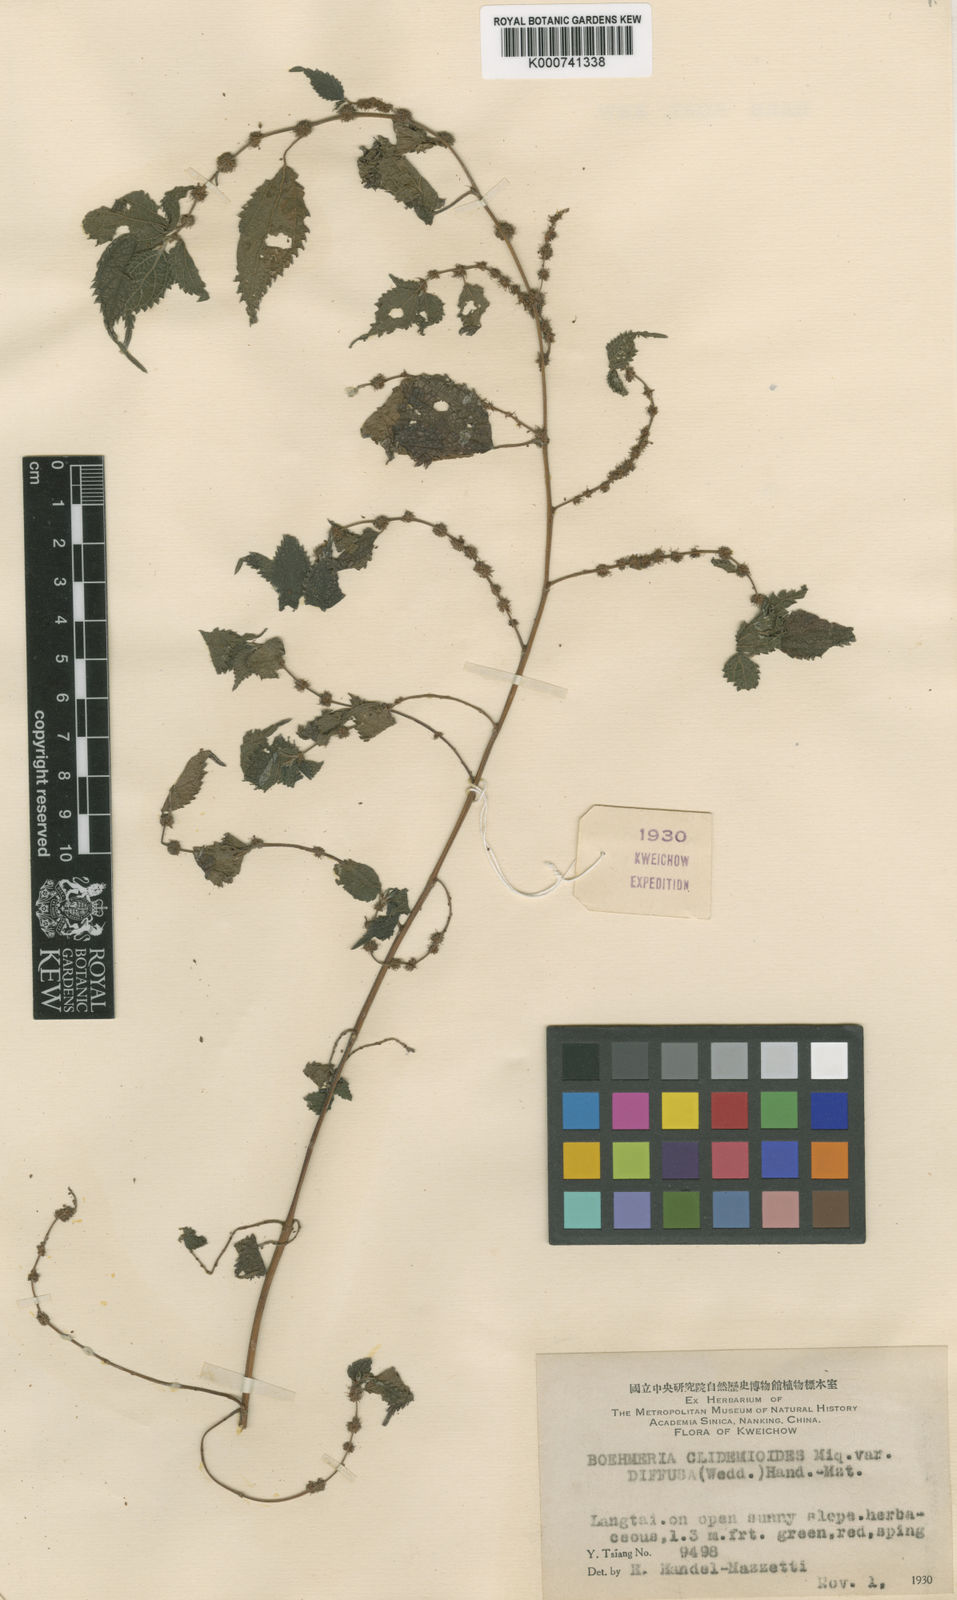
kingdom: Plantae
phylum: Tracheophyta
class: Magnoliopsida
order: Rosales
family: Urticaceae
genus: Boehmeria
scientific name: Boehmeria clidemioides
